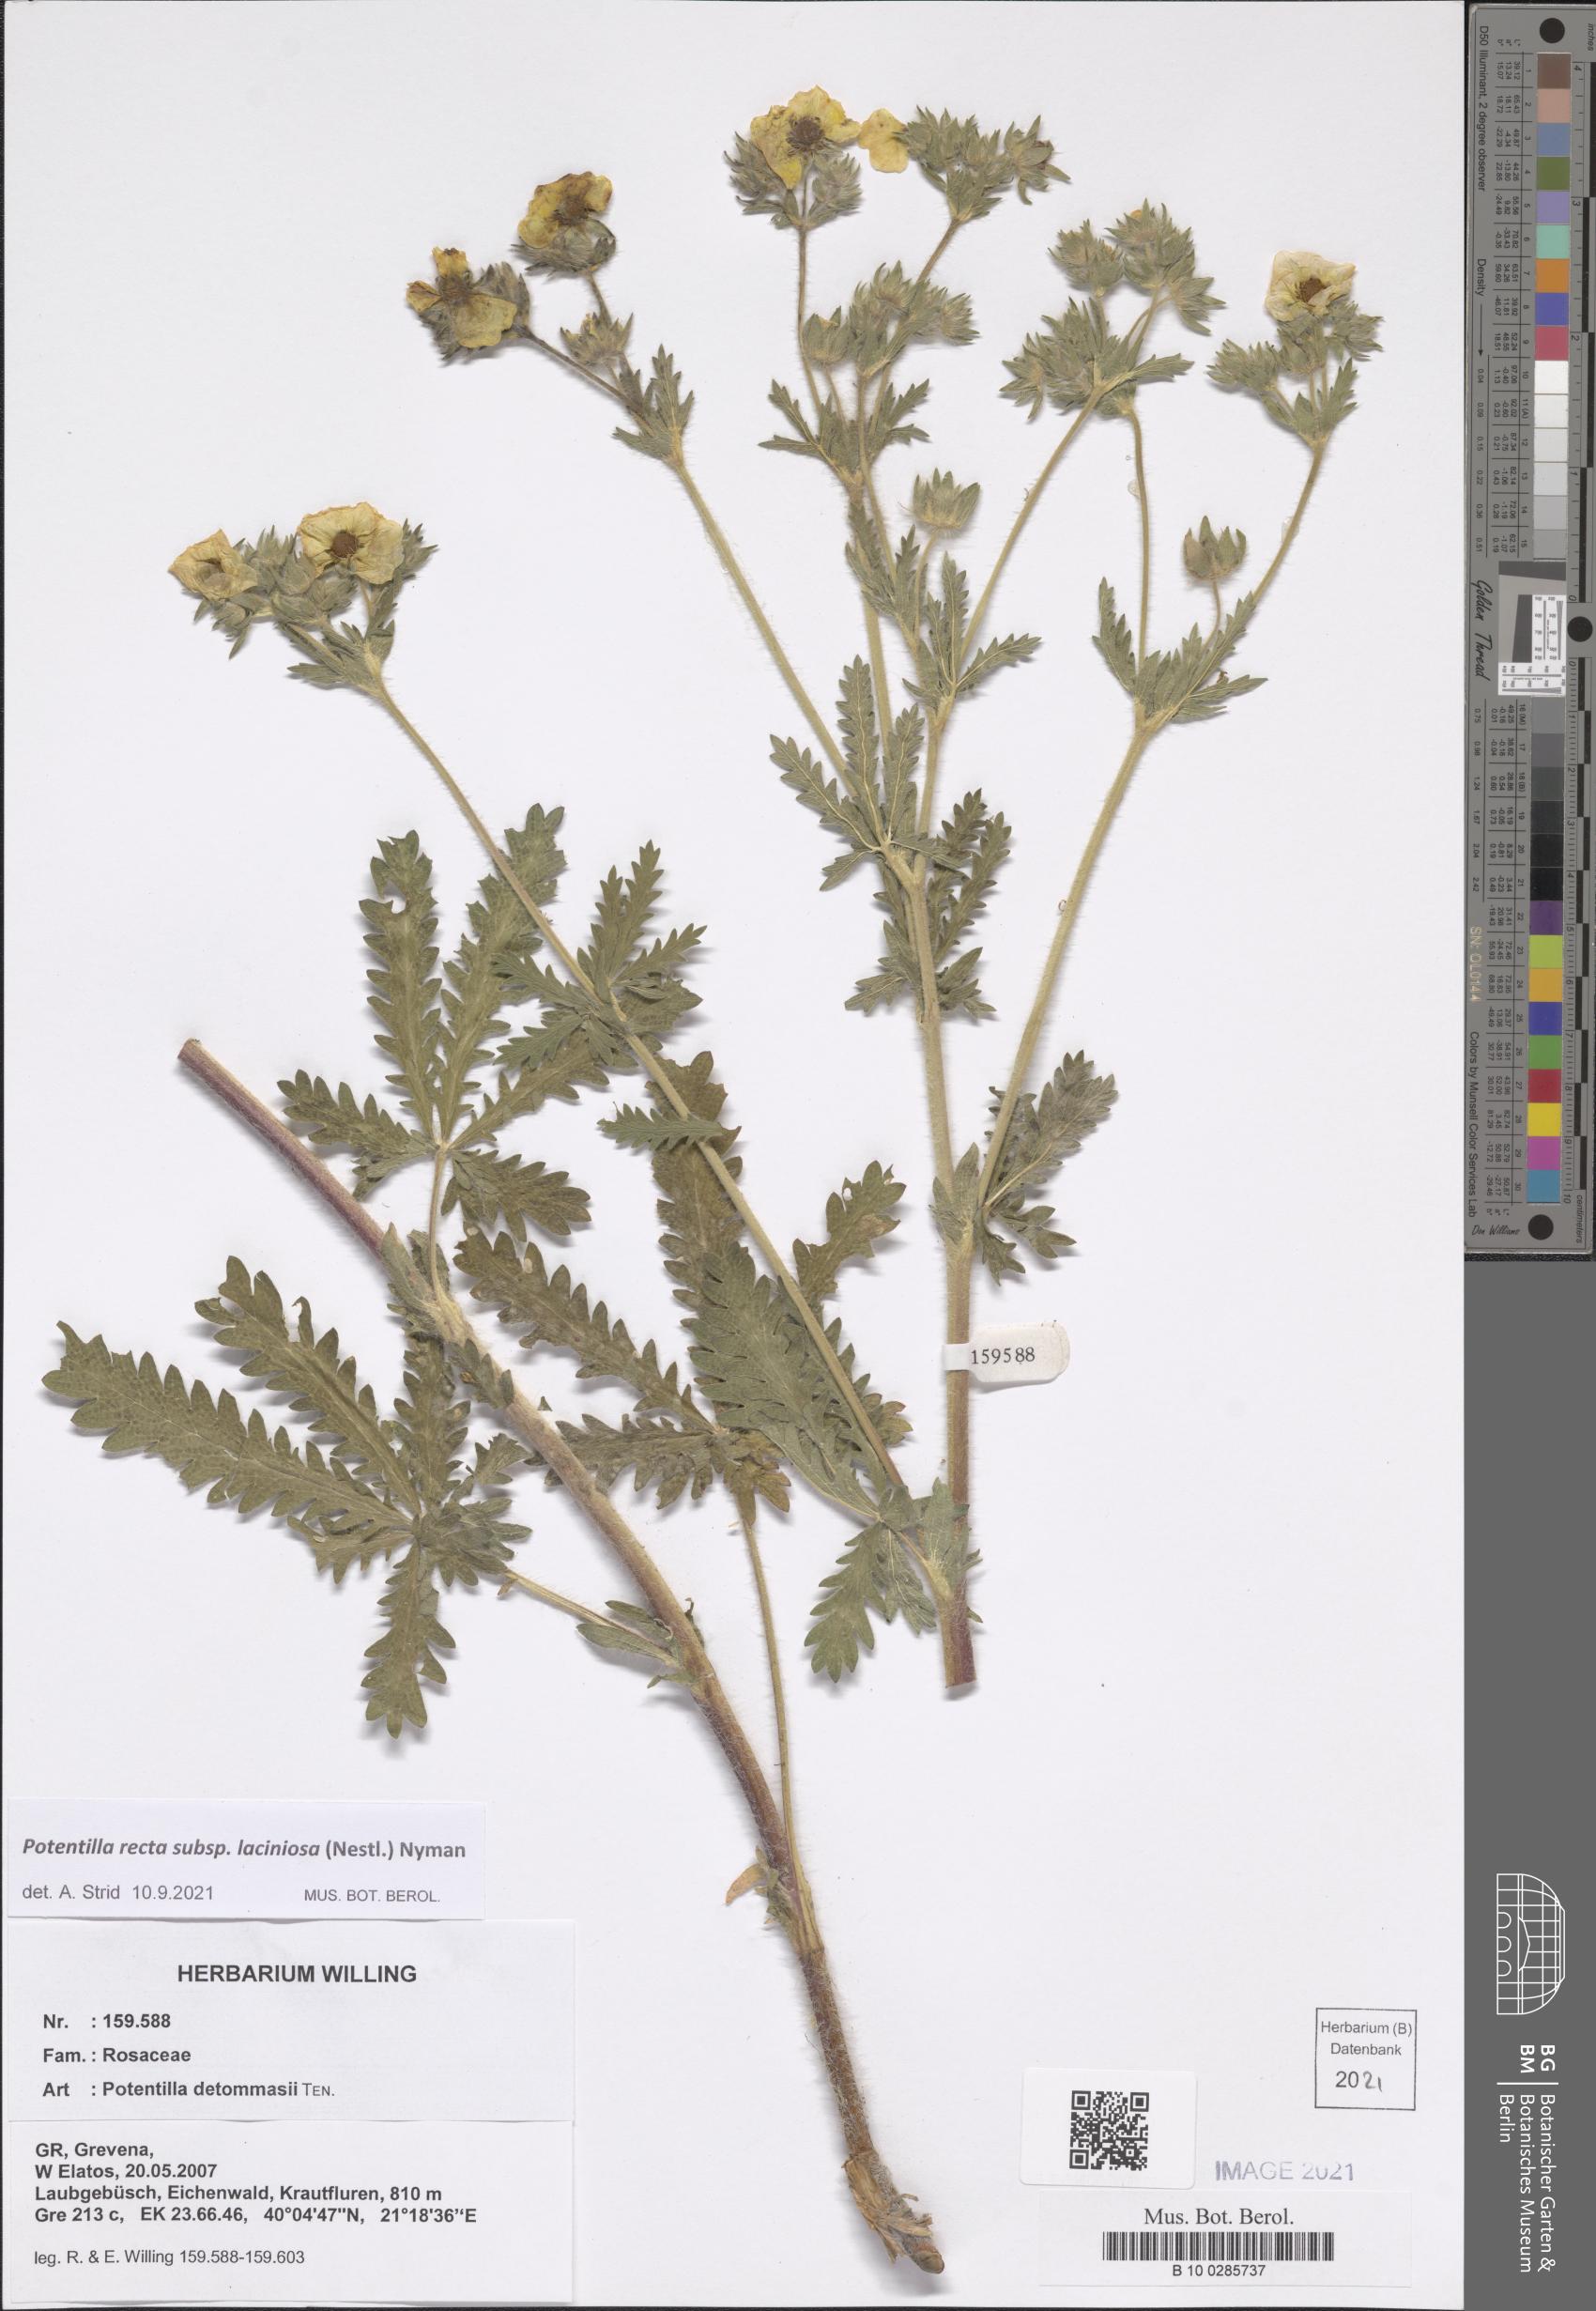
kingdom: Plantae
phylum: Tracheophyta
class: Magnoliopsida
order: Rosales
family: Rosaceae
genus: Potentilla
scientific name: Potentilla recta
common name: Sulphur cinquefoil
